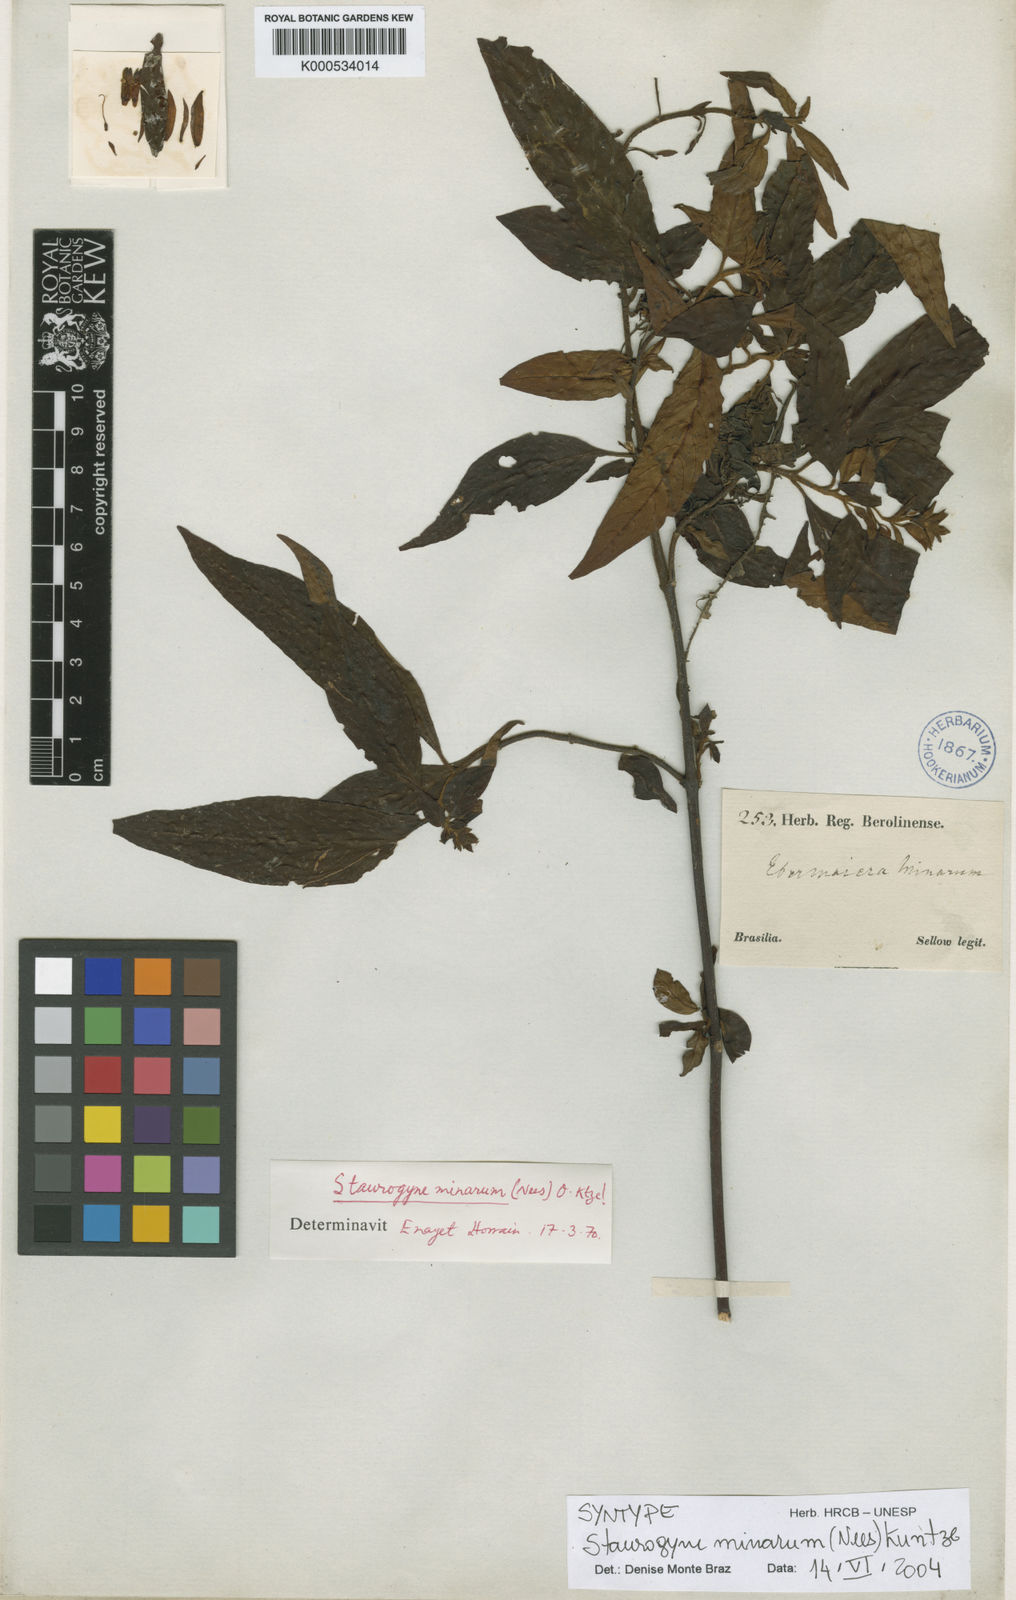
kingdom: Plantae
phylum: Tracheophyta
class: Magnoliopsida
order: Lamiales
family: Acanthaceae
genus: Staurogyne
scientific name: Staurogyne minarum
